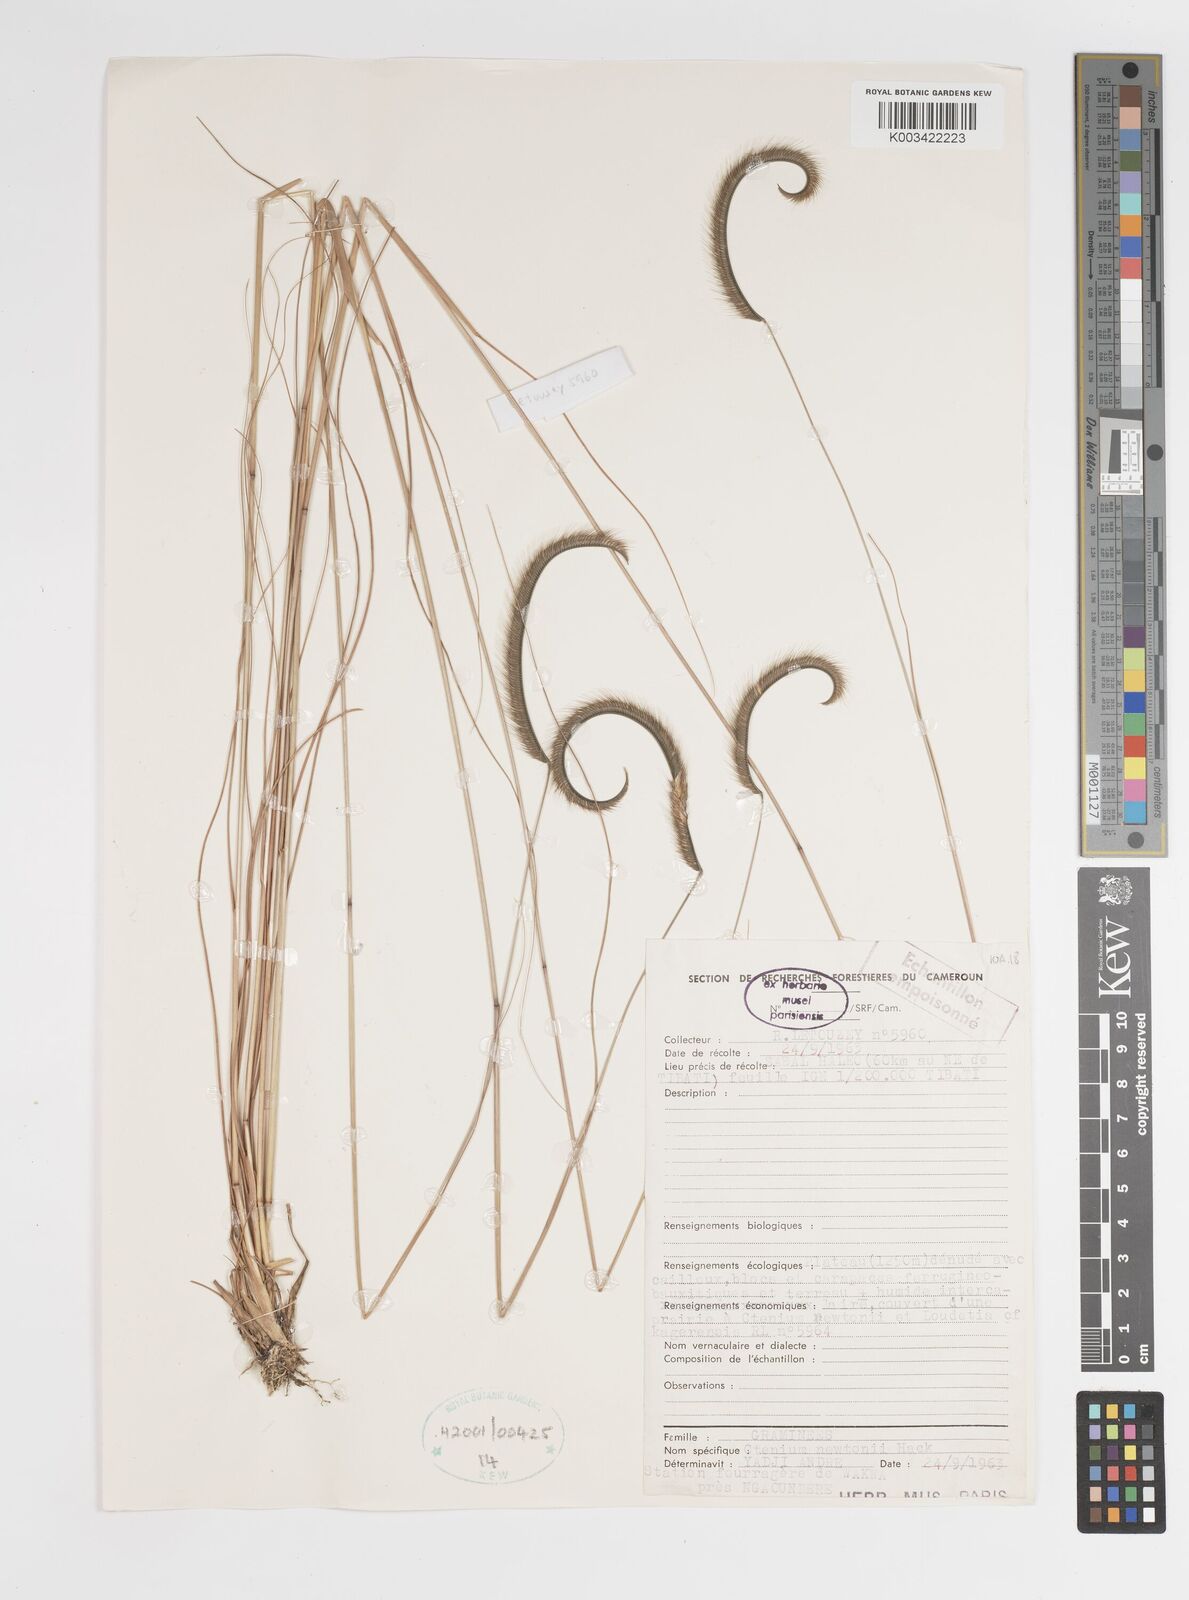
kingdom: Plantae
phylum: Tracheophyta
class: Liliopsida
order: Poales
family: Poaceae
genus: Ctenium
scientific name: Ctenium newtonii
